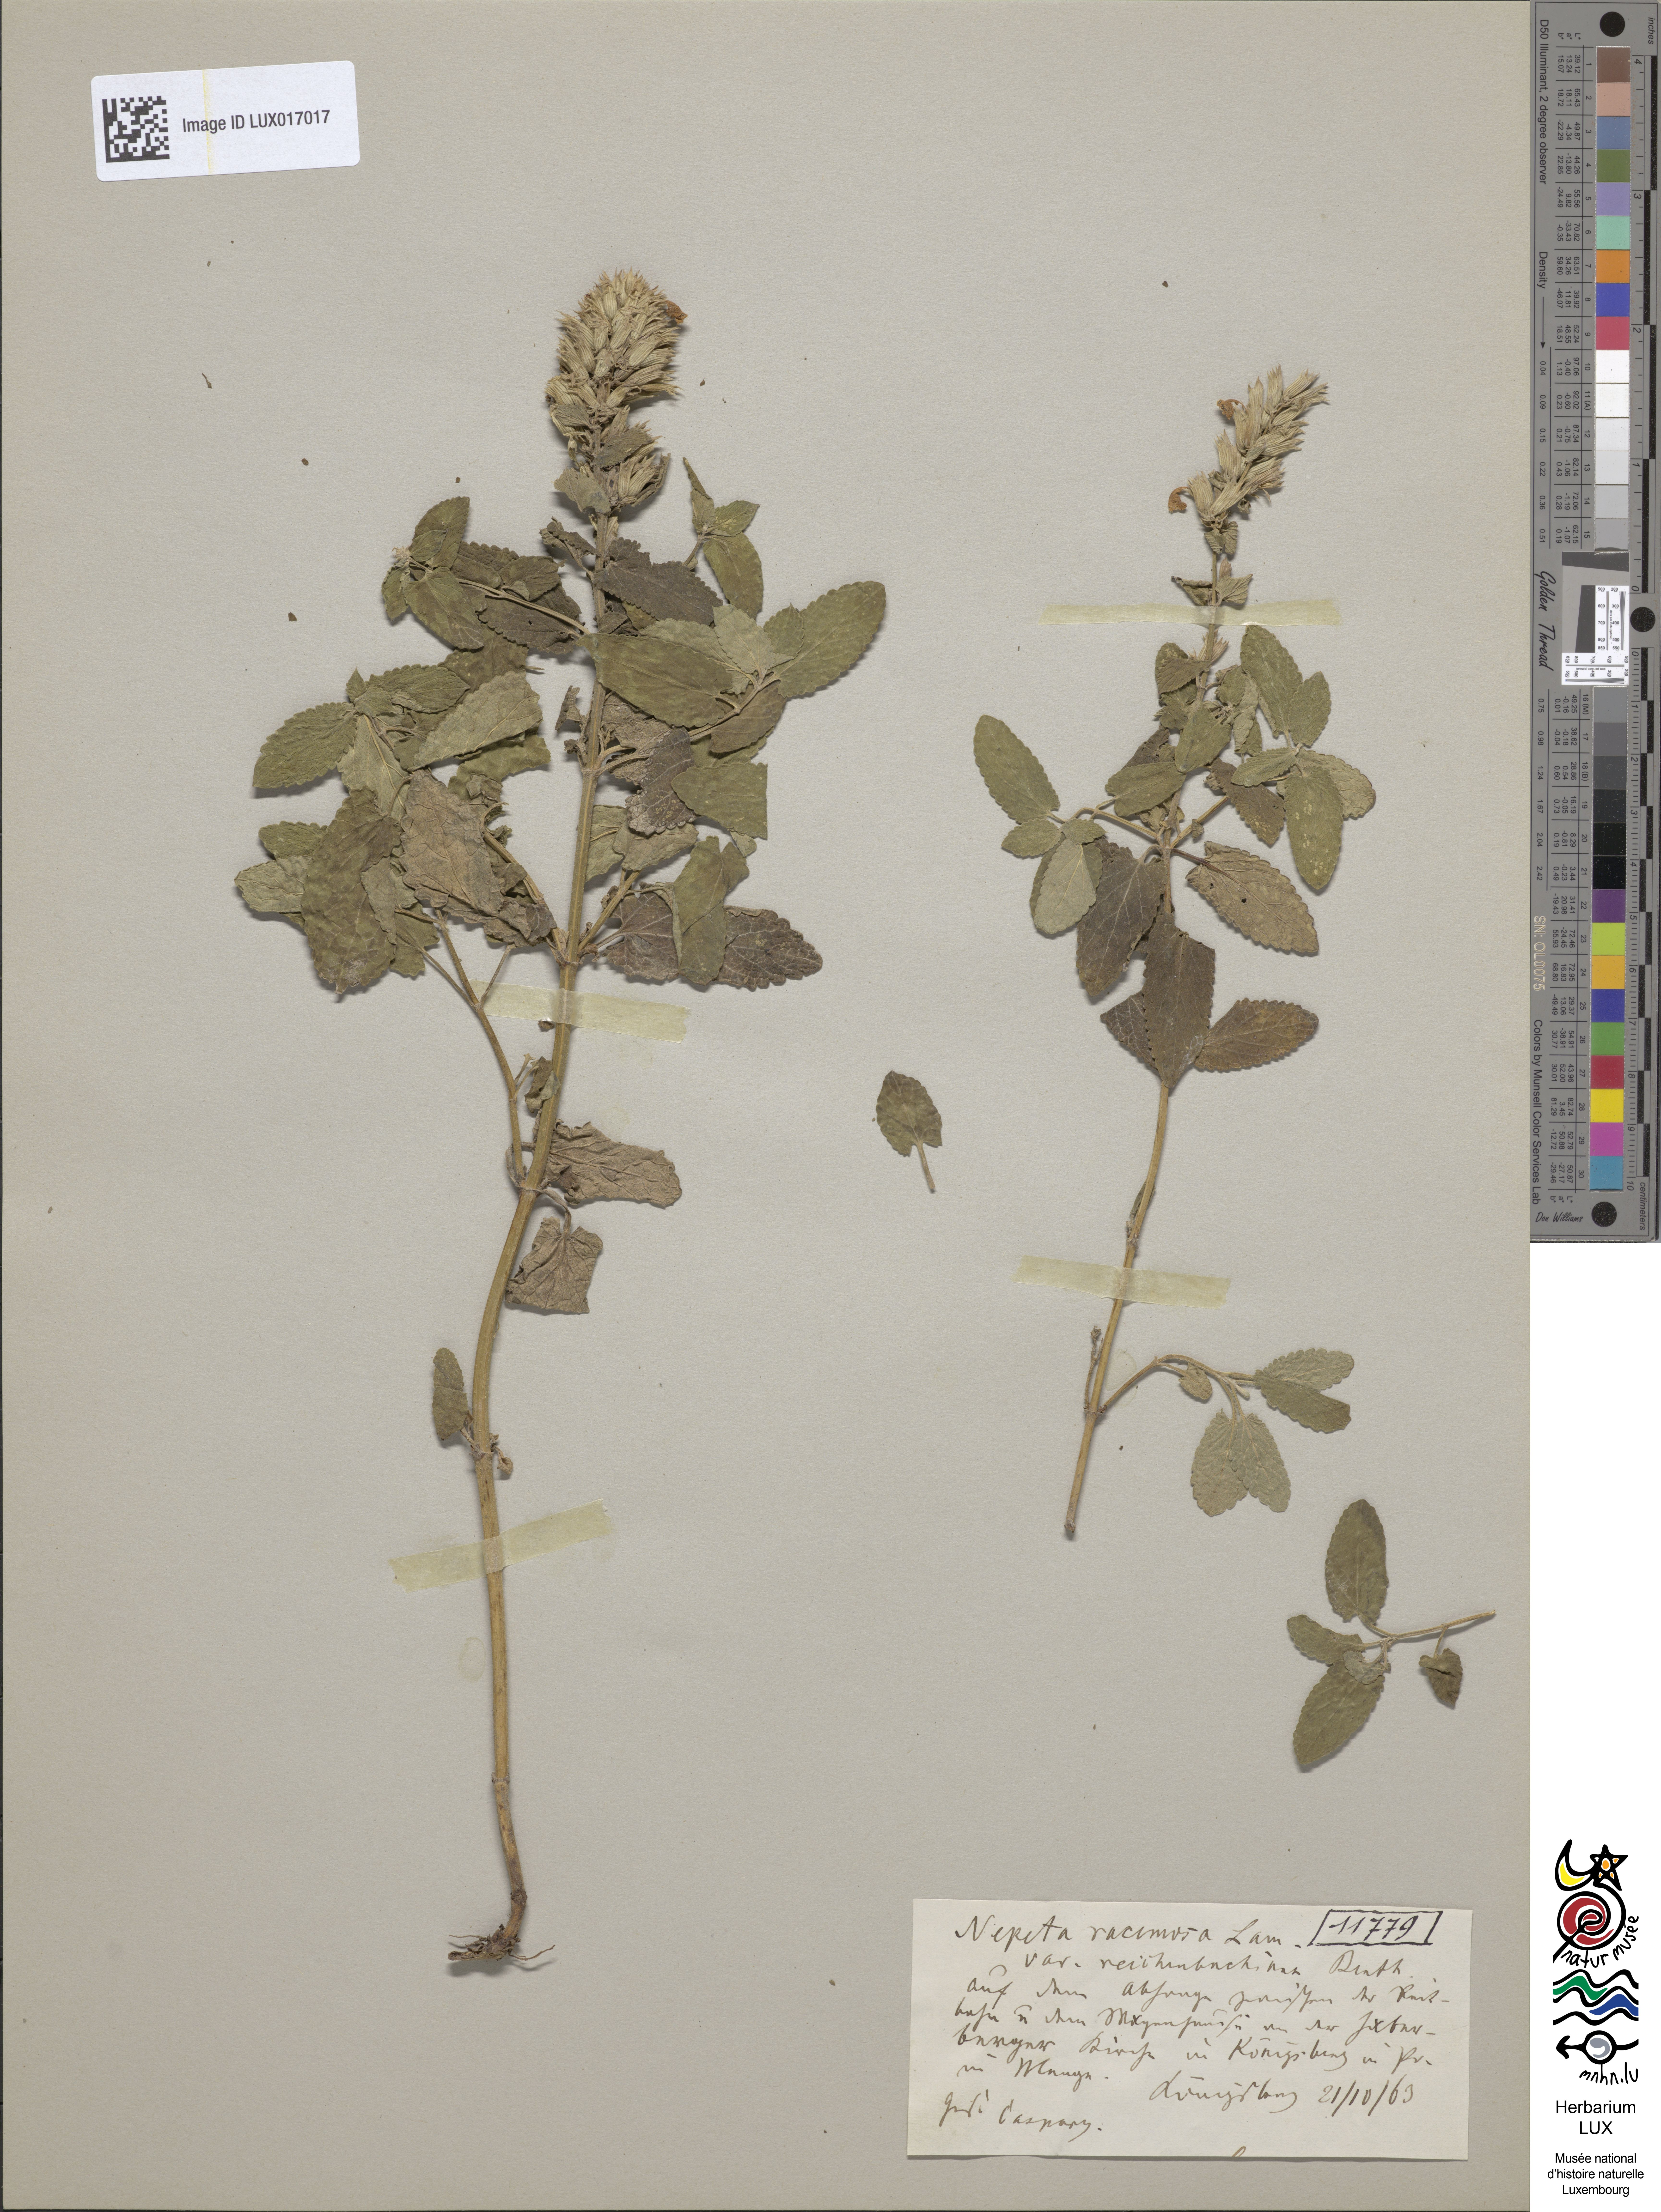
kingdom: Plantae
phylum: Tracheophyta
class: Magnoliopsida
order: Lamiales
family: Lamiaceae
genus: Nepeta
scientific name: Nepeta racemosa
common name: Raceme catnip
